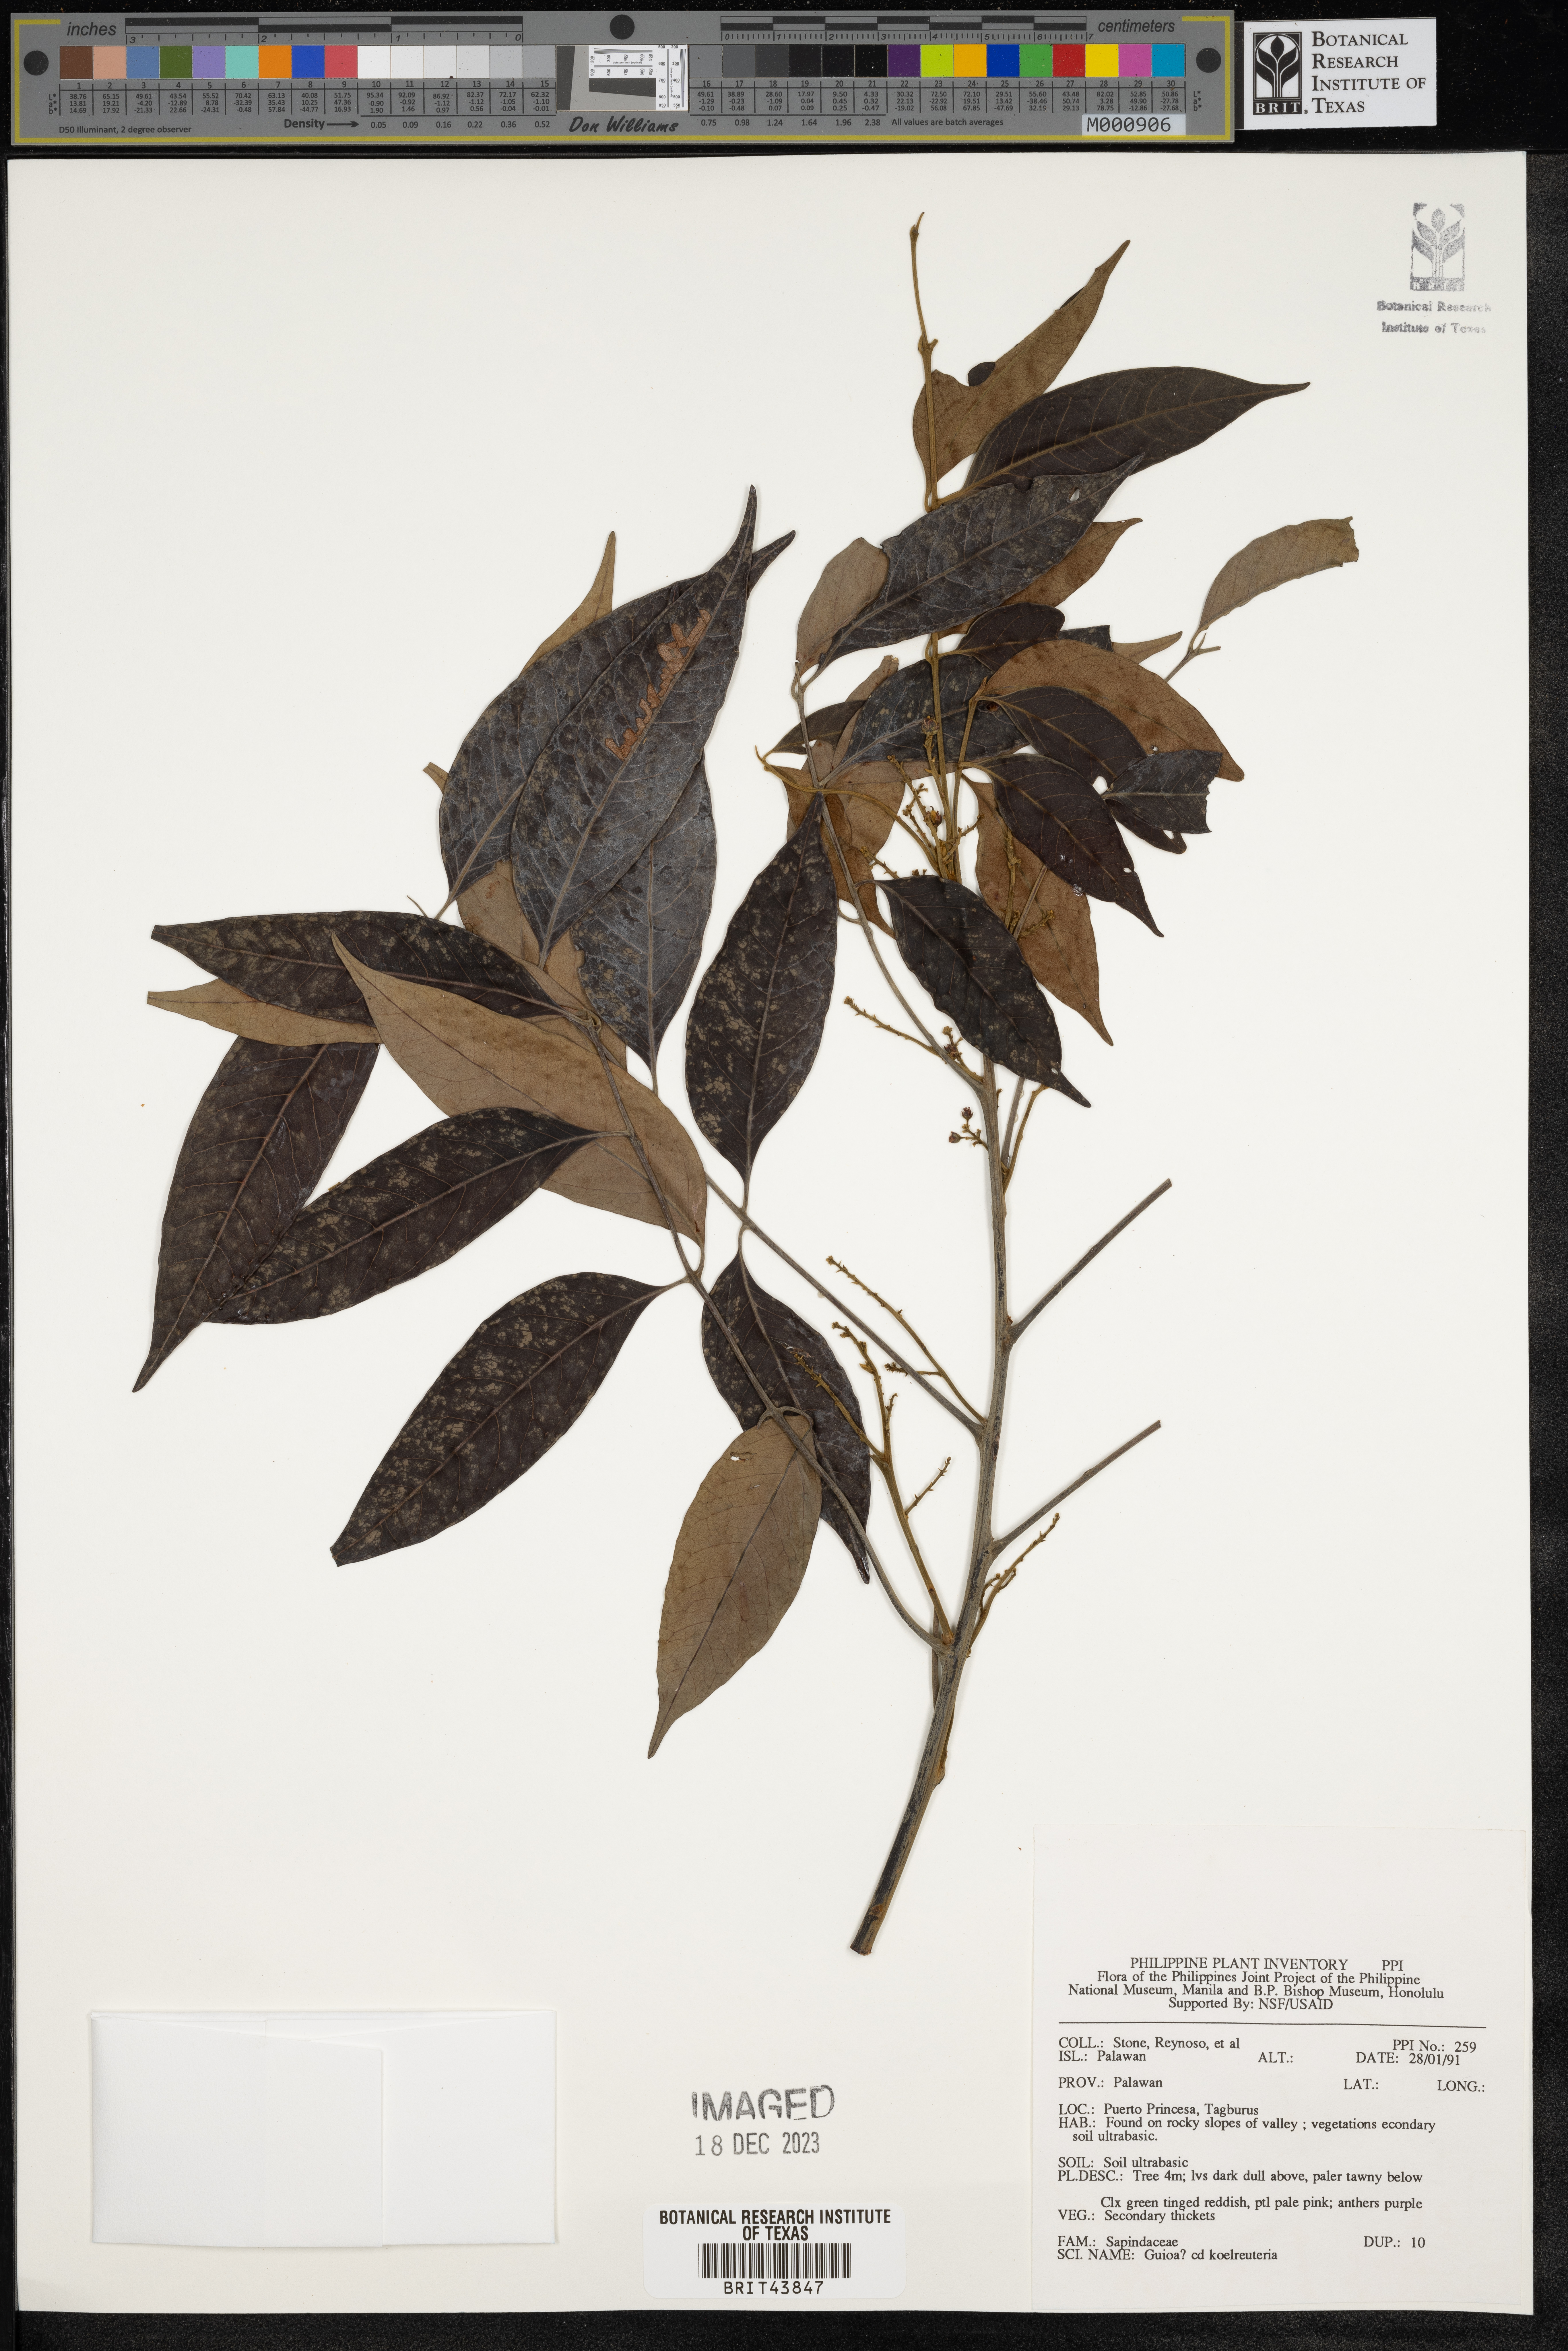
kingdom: Plantae
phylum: Tracheophyta
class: Magnoliopsida
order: Sapindales
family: Sapindaceae
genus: Guioa
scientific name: Guioa koelreuteria
